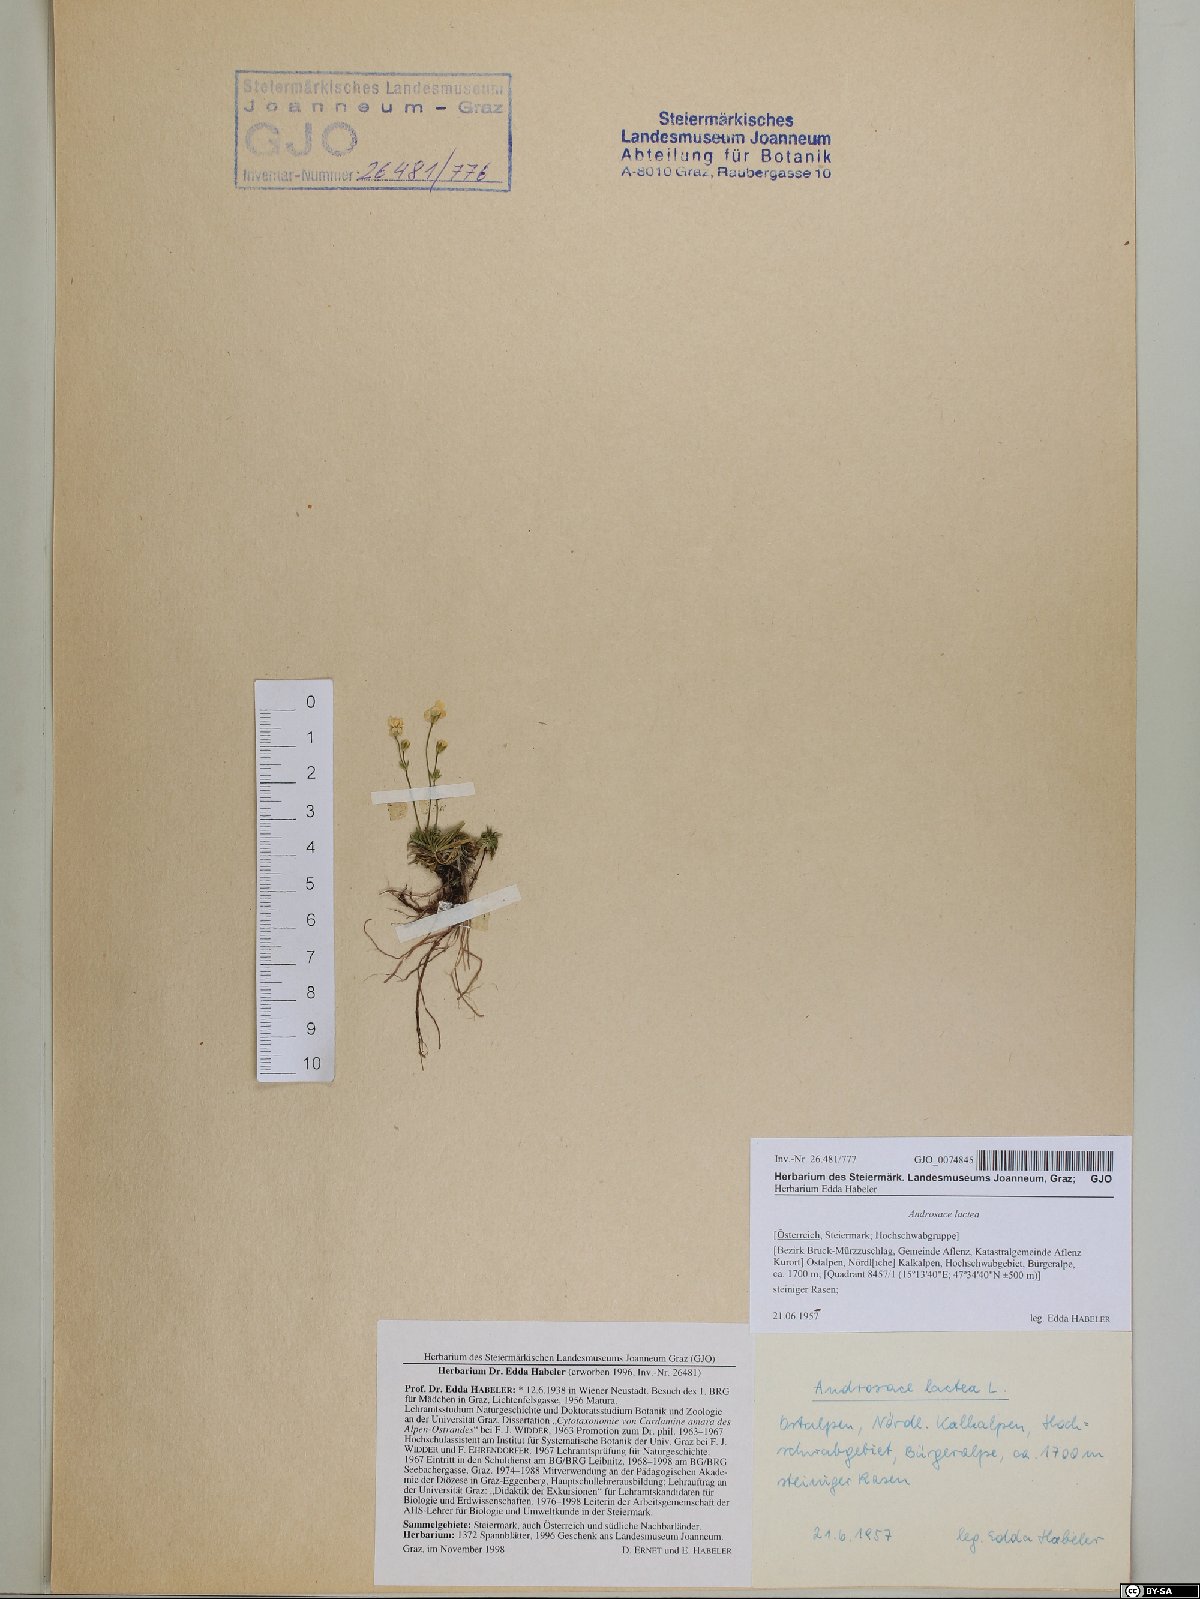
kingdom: Plantae
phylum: Tracheophyta
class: Magnoliopsida
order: Ericales
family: Primulaceae
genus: Androsace
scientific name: Androsace lactea
